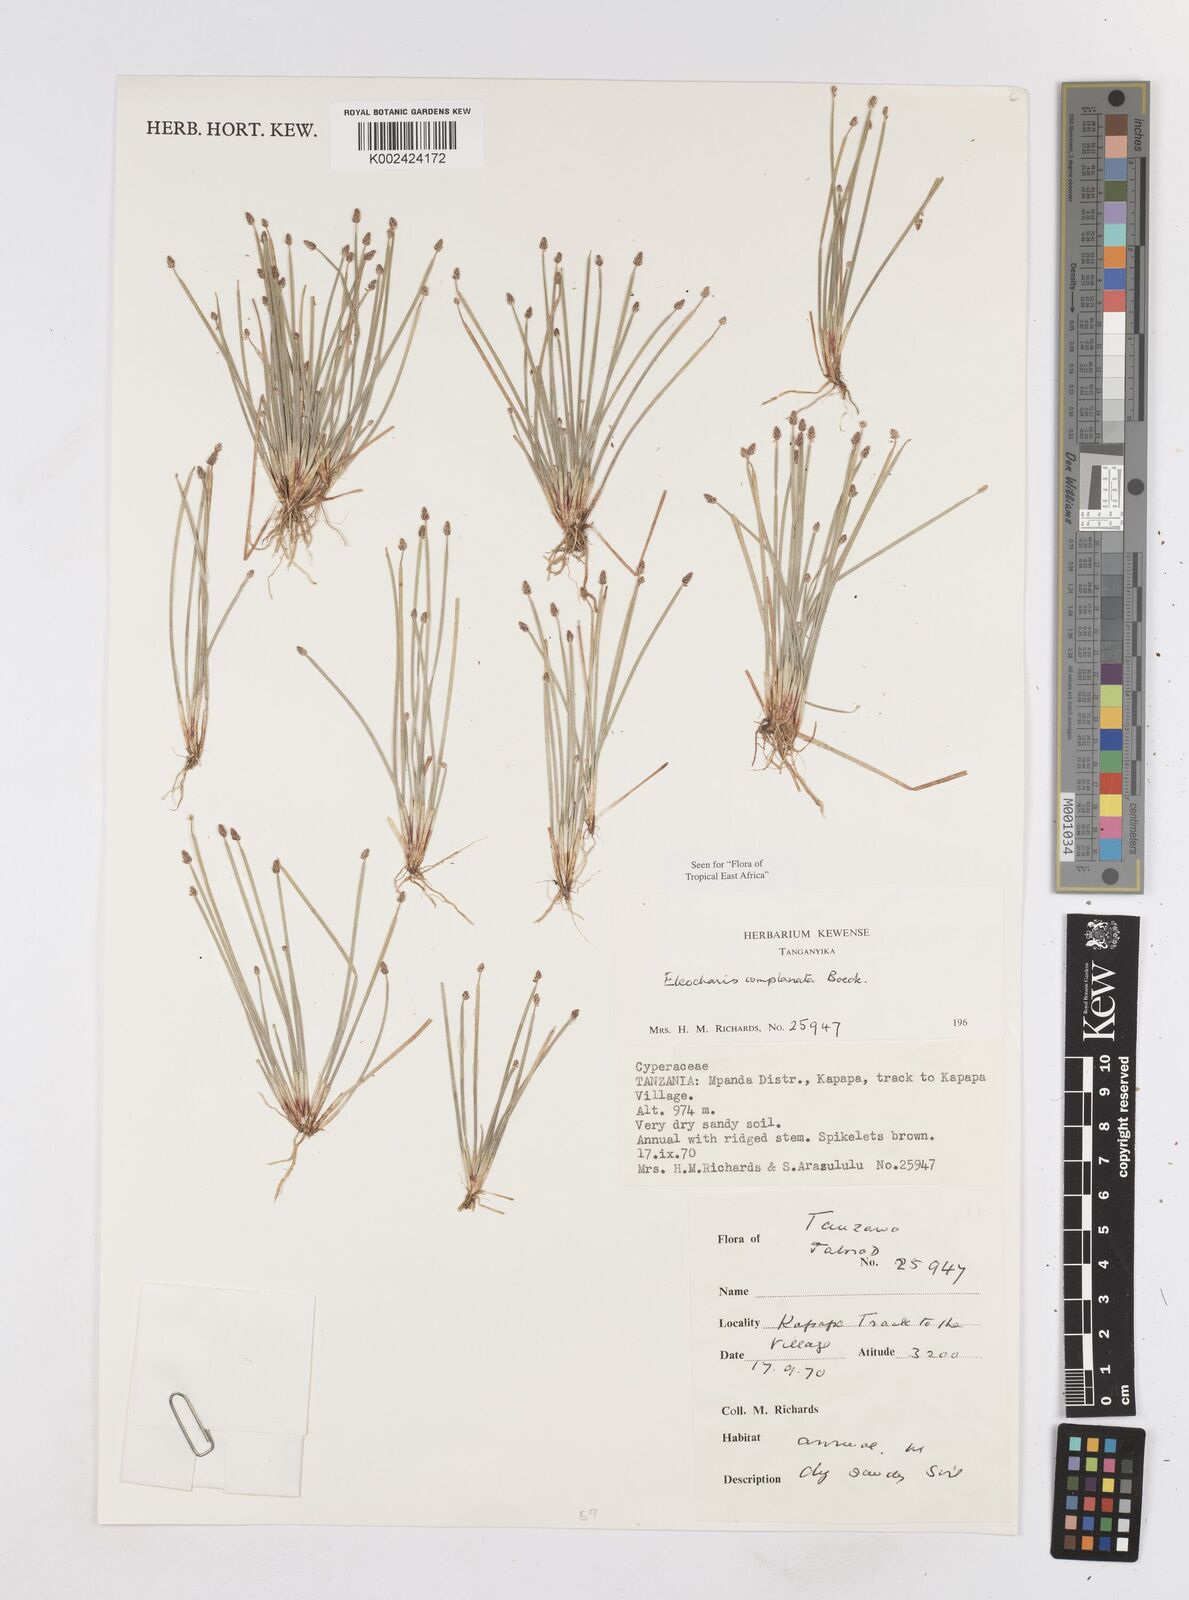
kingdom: Plantae
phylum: Tracheophyta
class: Liliopsida
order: Poales
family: Cyperaceae
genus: Eleocharis
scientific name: Eleocharis complanata
